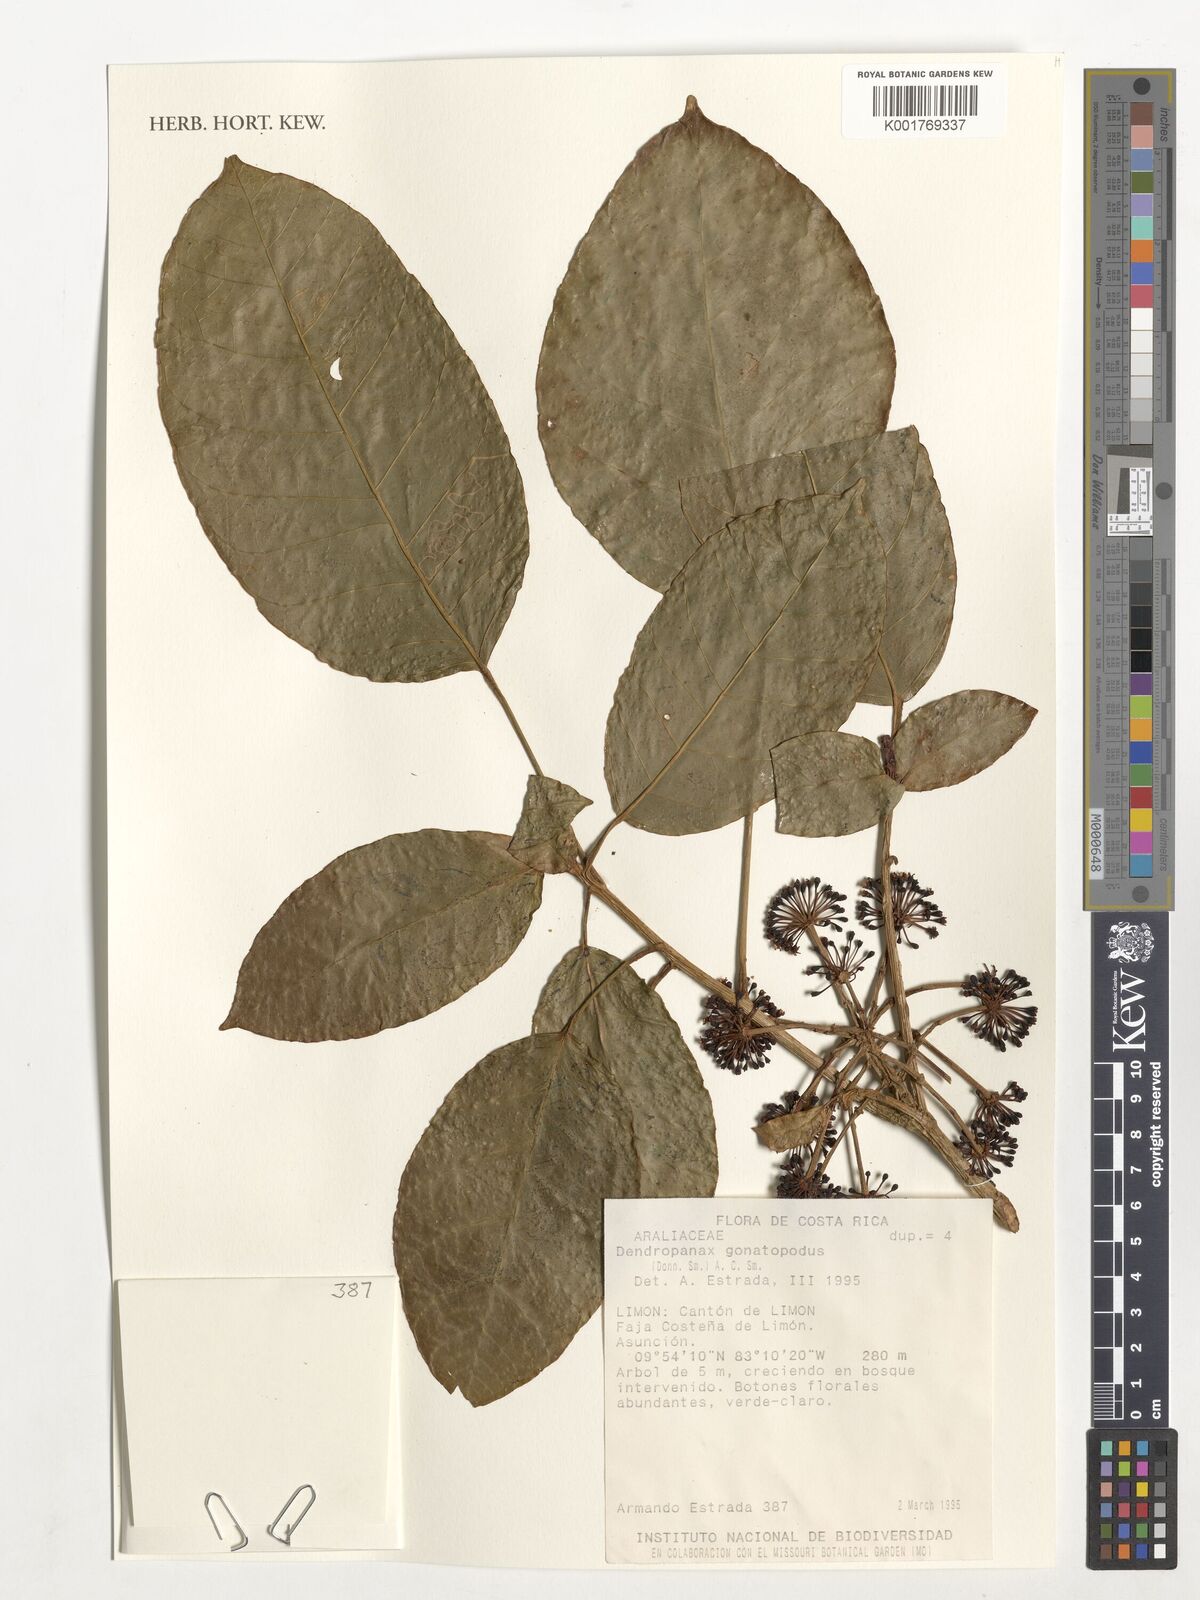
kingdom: Plantae
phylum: Tracheophyta
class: Magnoliopsida
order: Apiales
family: Araliaceae
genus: Dendropanax
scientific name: Dendropanax gonatopodus
